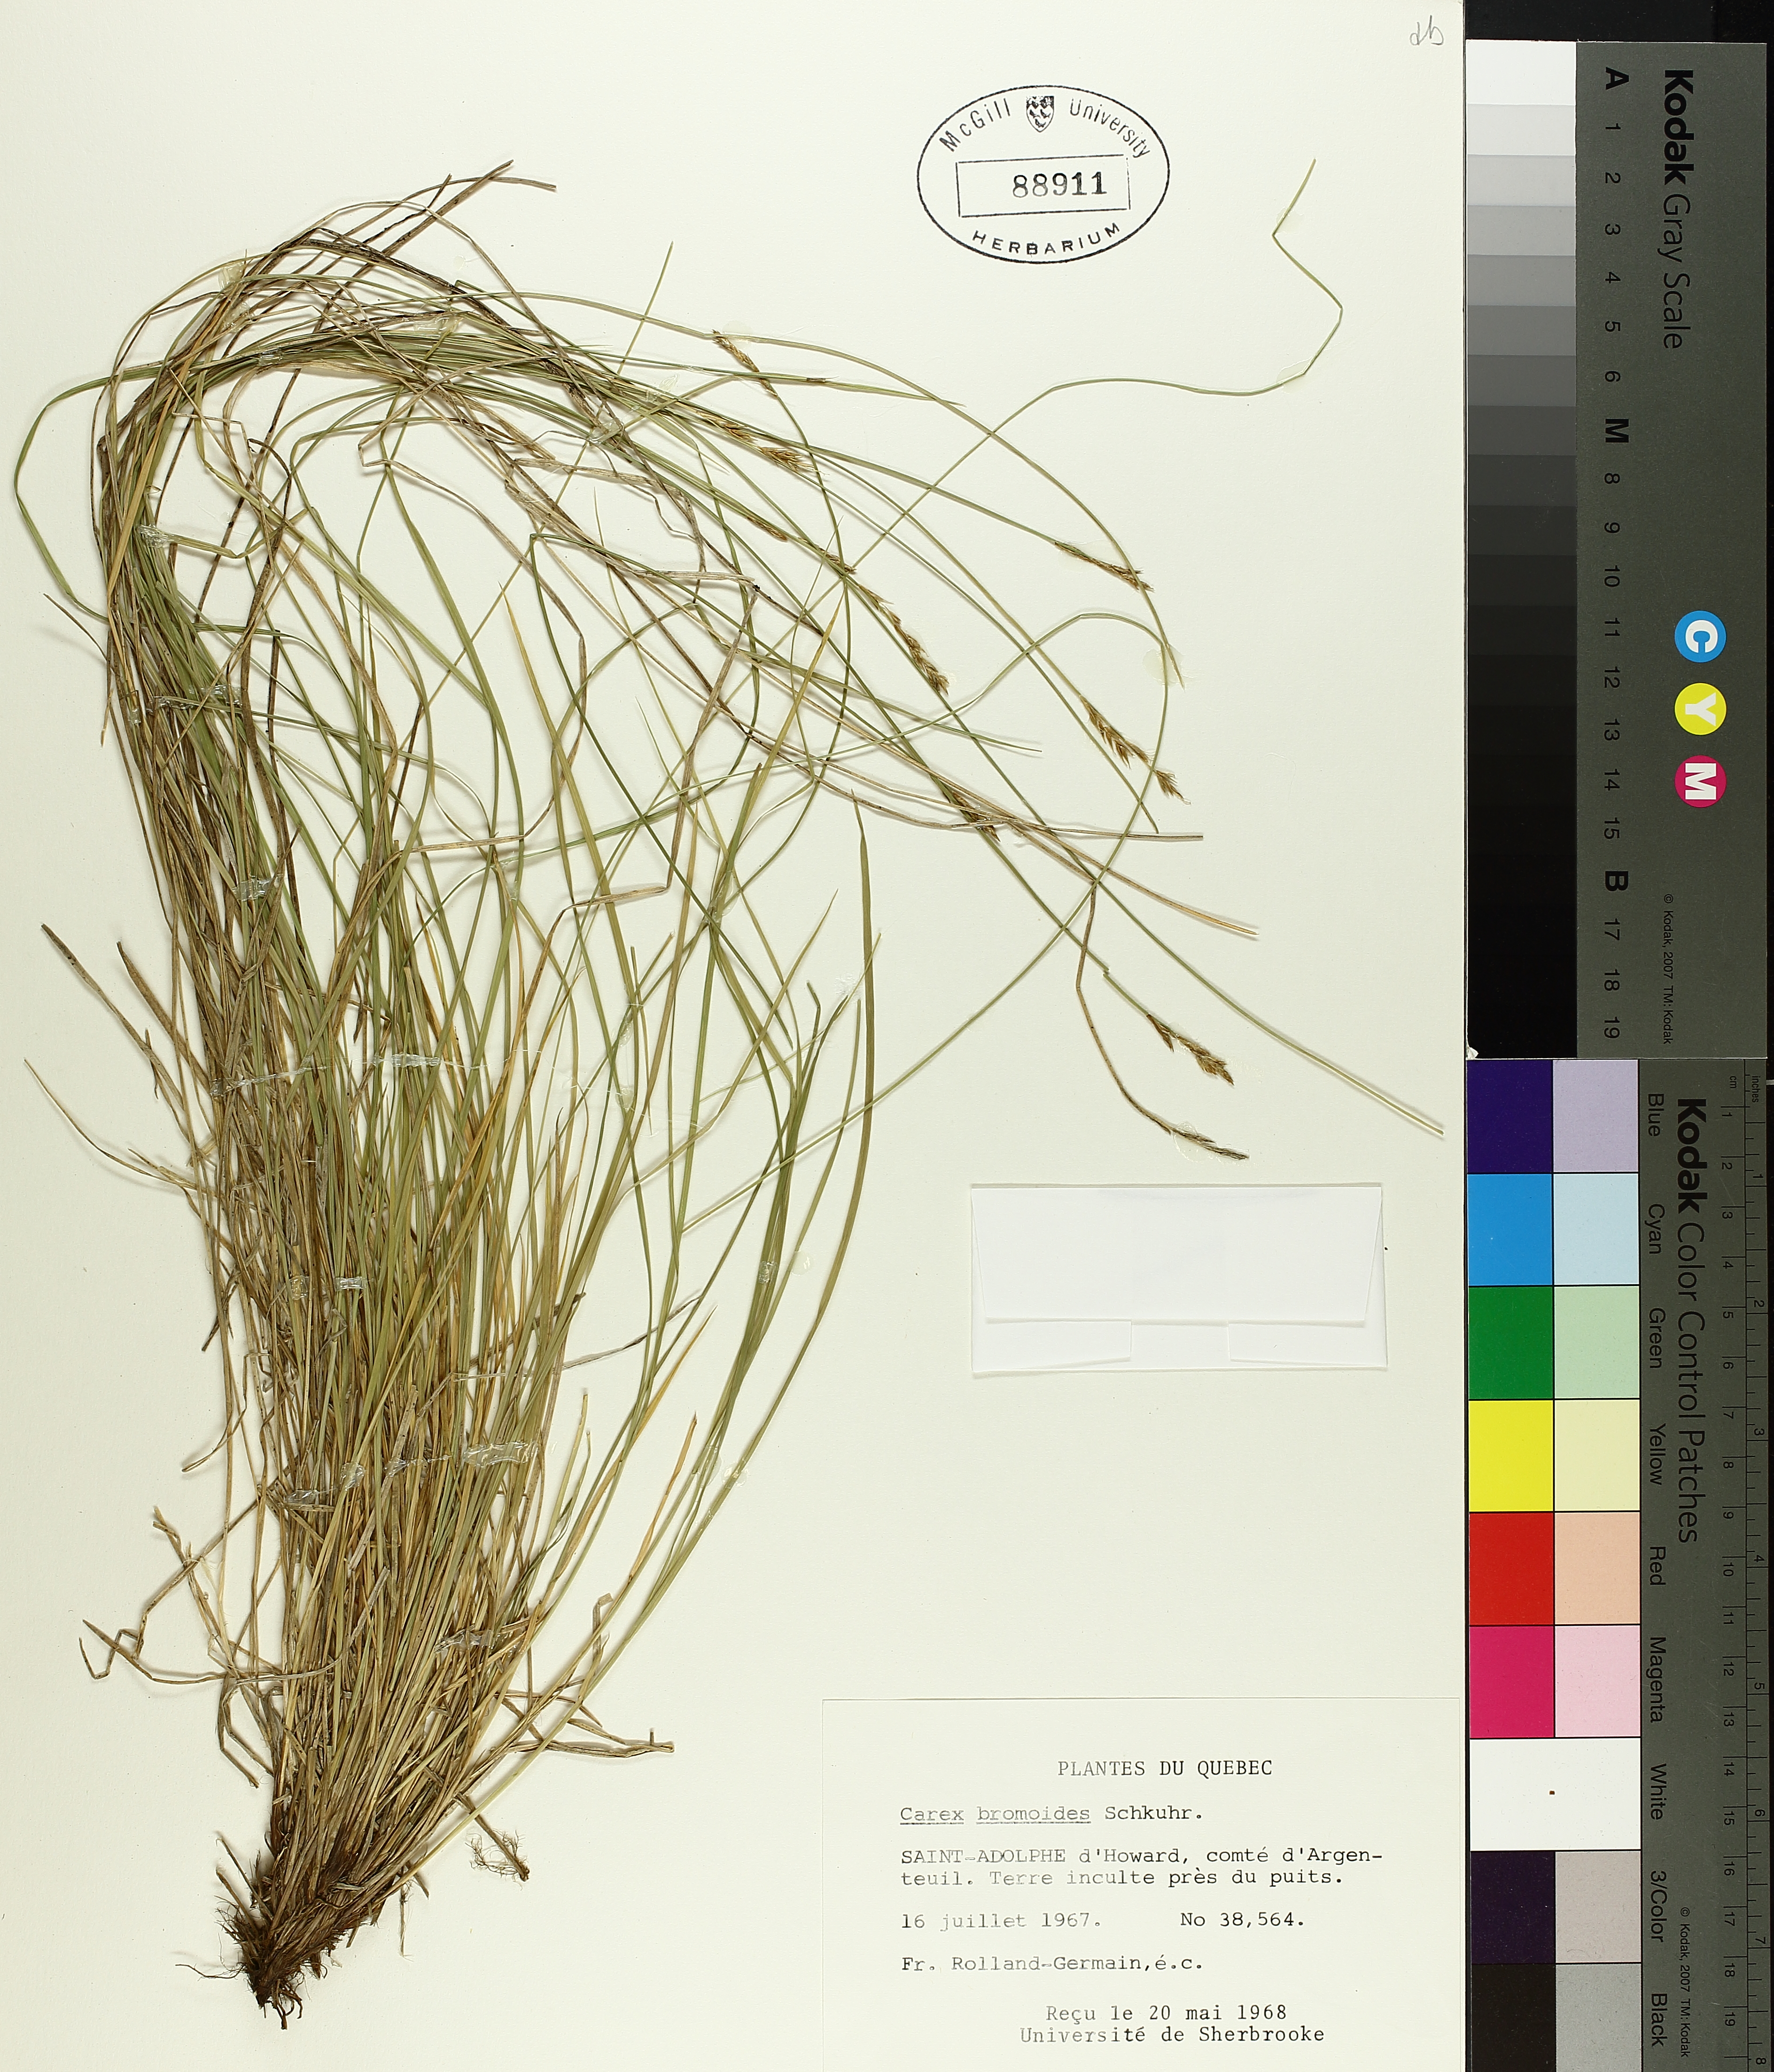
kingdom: Plantae
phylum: Tracheophyta
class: Liliopsida
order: Poales
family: Cyperaceae
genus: Carex
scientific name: Carex bromoides
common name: Brome hummock sedge
